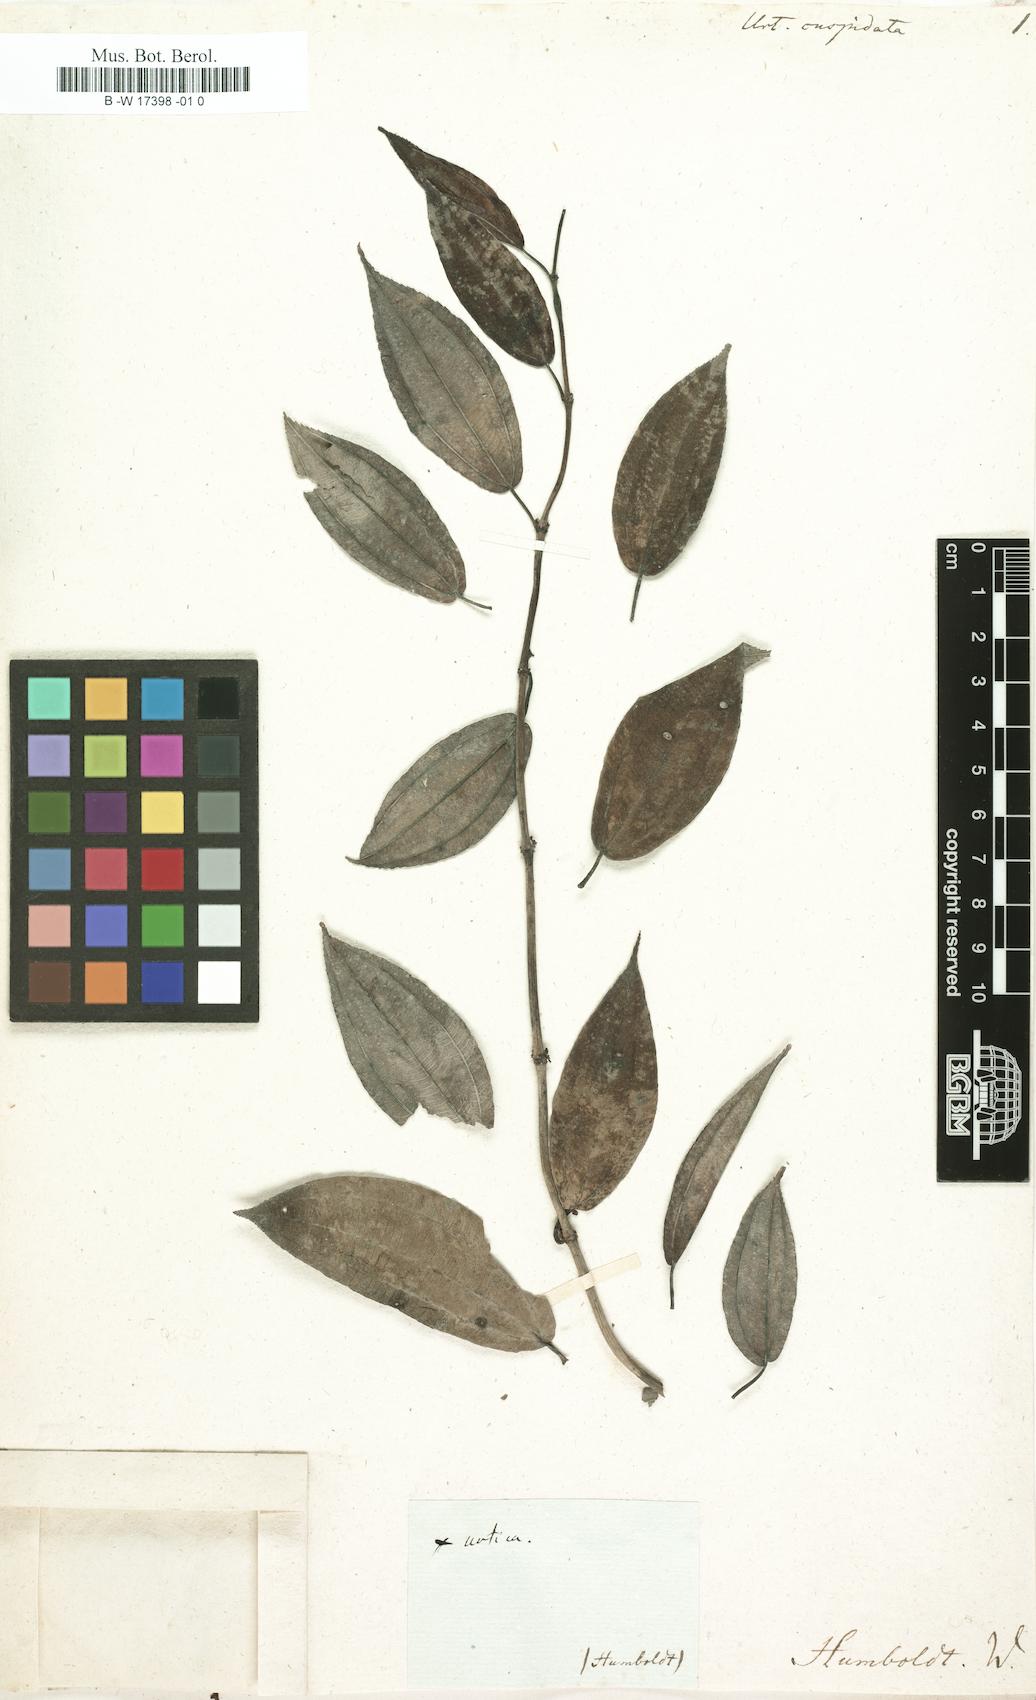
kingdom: Plantae
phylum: Tracheophyta
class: Magnoliopsida
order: Rosales
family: Urticaceae
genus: Pilea
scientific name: Pilea lucens
